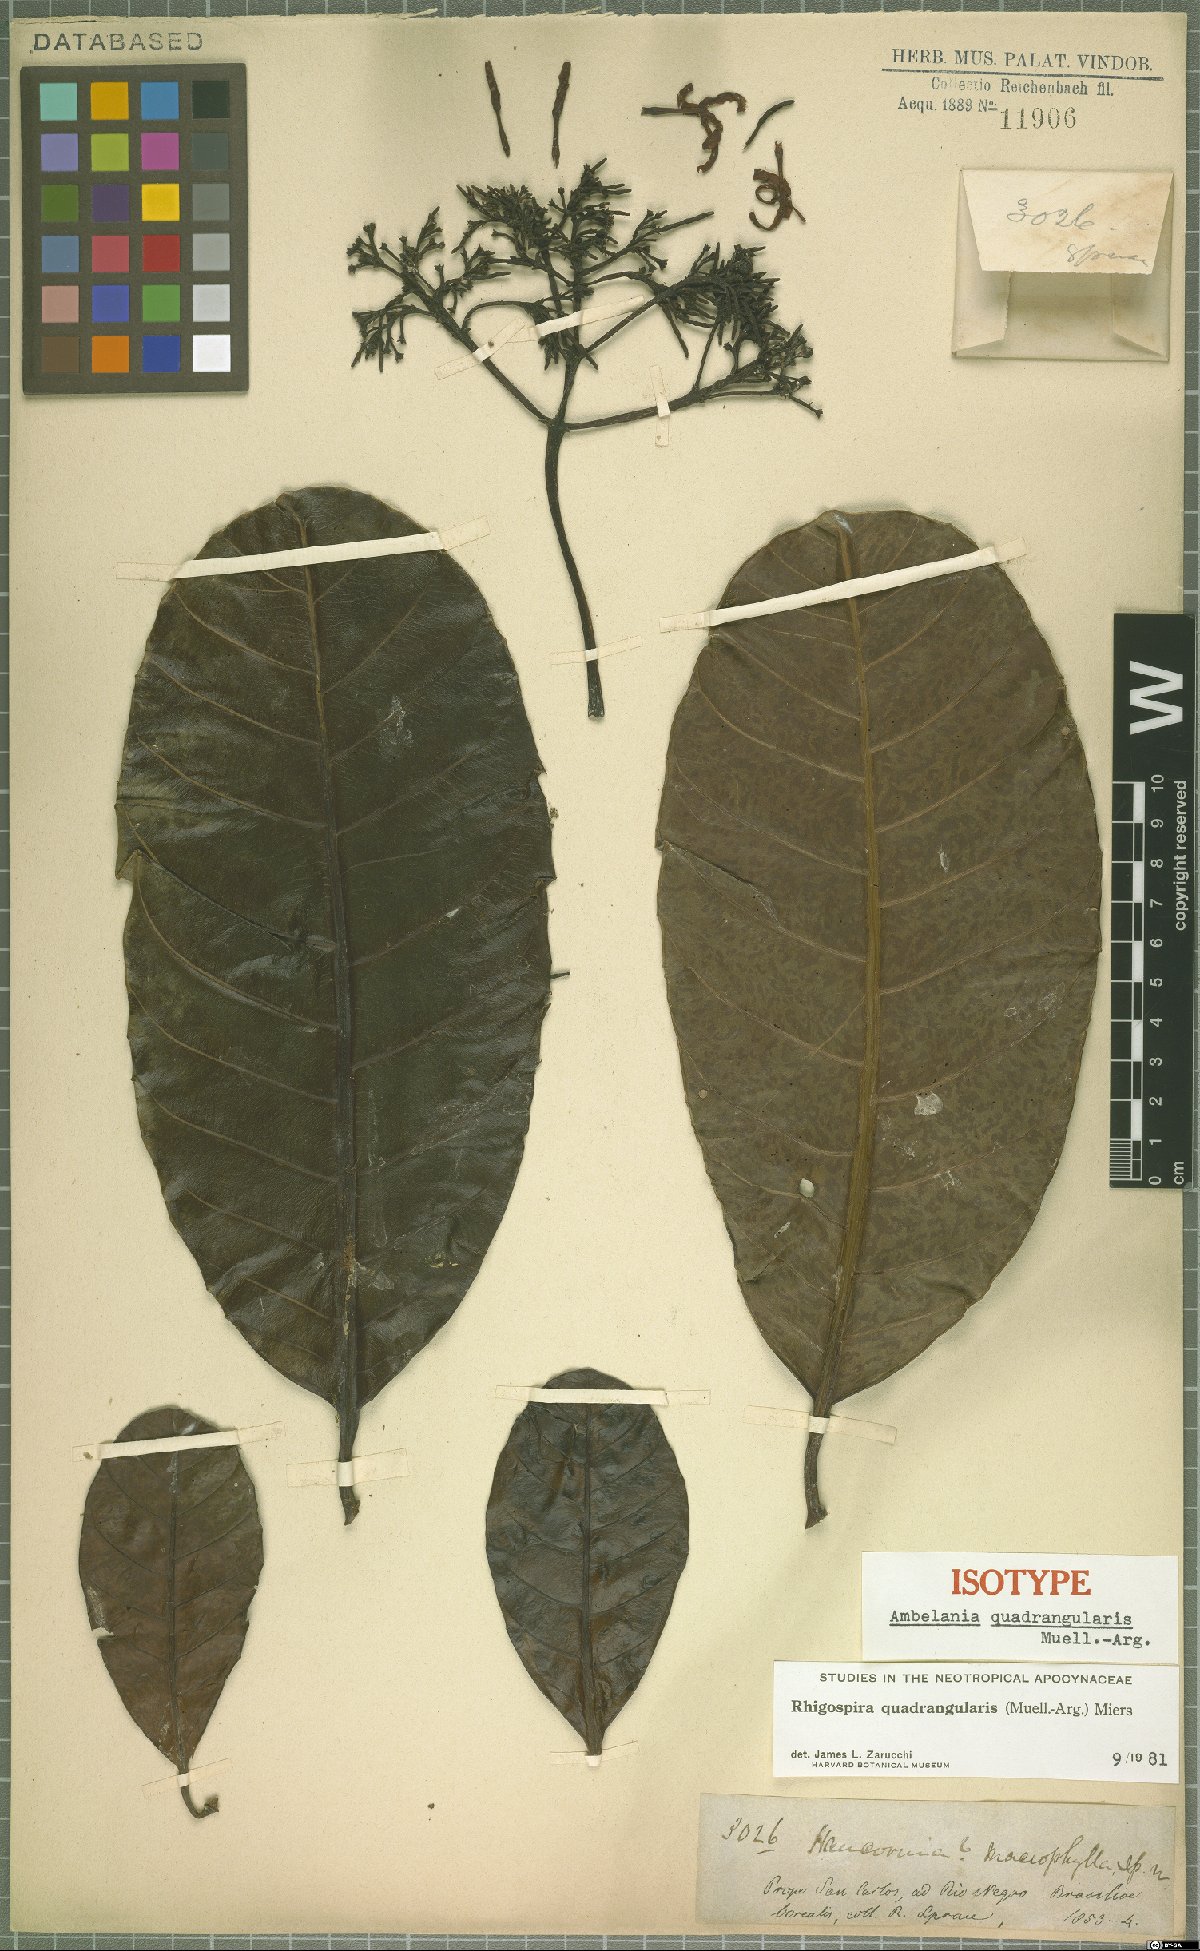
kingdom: Plantae
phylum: Tracheophyta
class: Magnoliopsida
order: Gentianales
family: Apocynaceae
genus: Rhigospira
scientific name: Rhigospira quadrangularis
